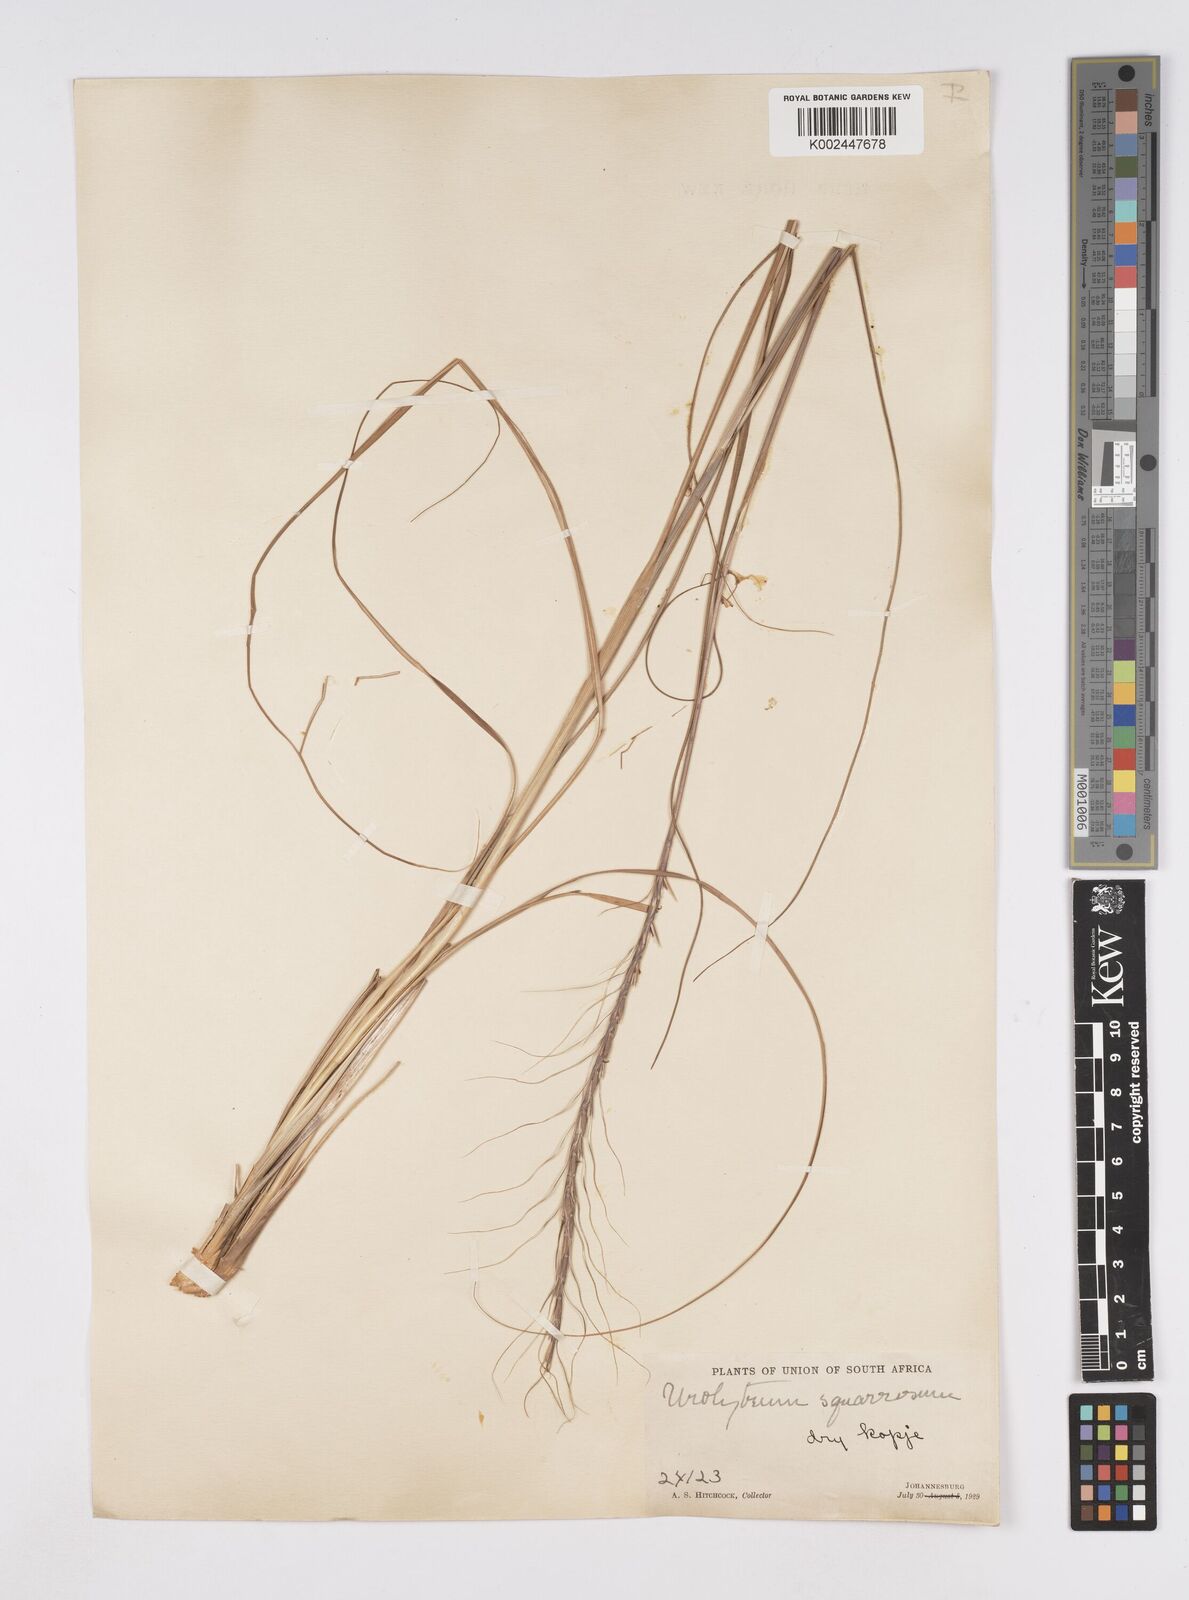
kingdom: Plantae
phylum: Tracheophyta
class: Liliopsida
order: Poales
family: Poaceae
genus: Urelytrum
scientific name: Urelytrum agropyroides
